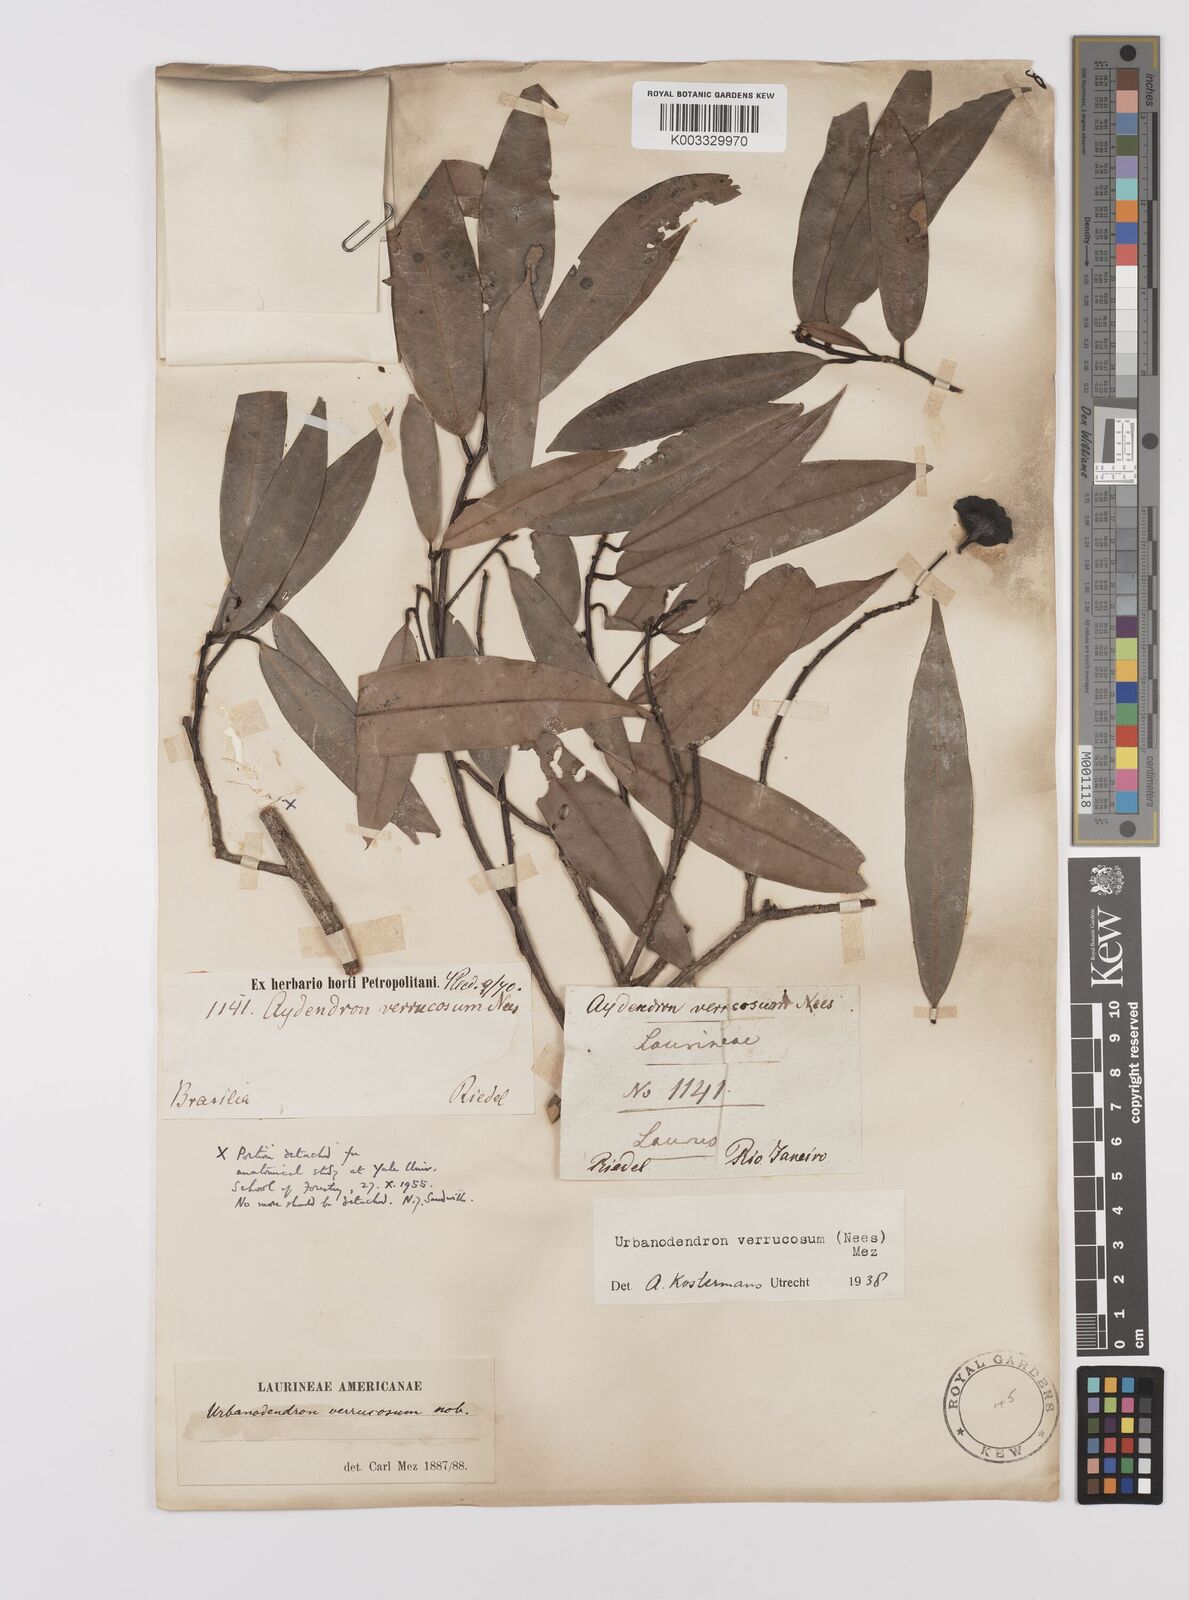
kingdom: Plantae
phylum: Tracheophyta
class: Magnoliopsida
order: Laurales
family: Lauraceae
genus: Urbanodendron
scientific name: Urbanodendron verrucosum
